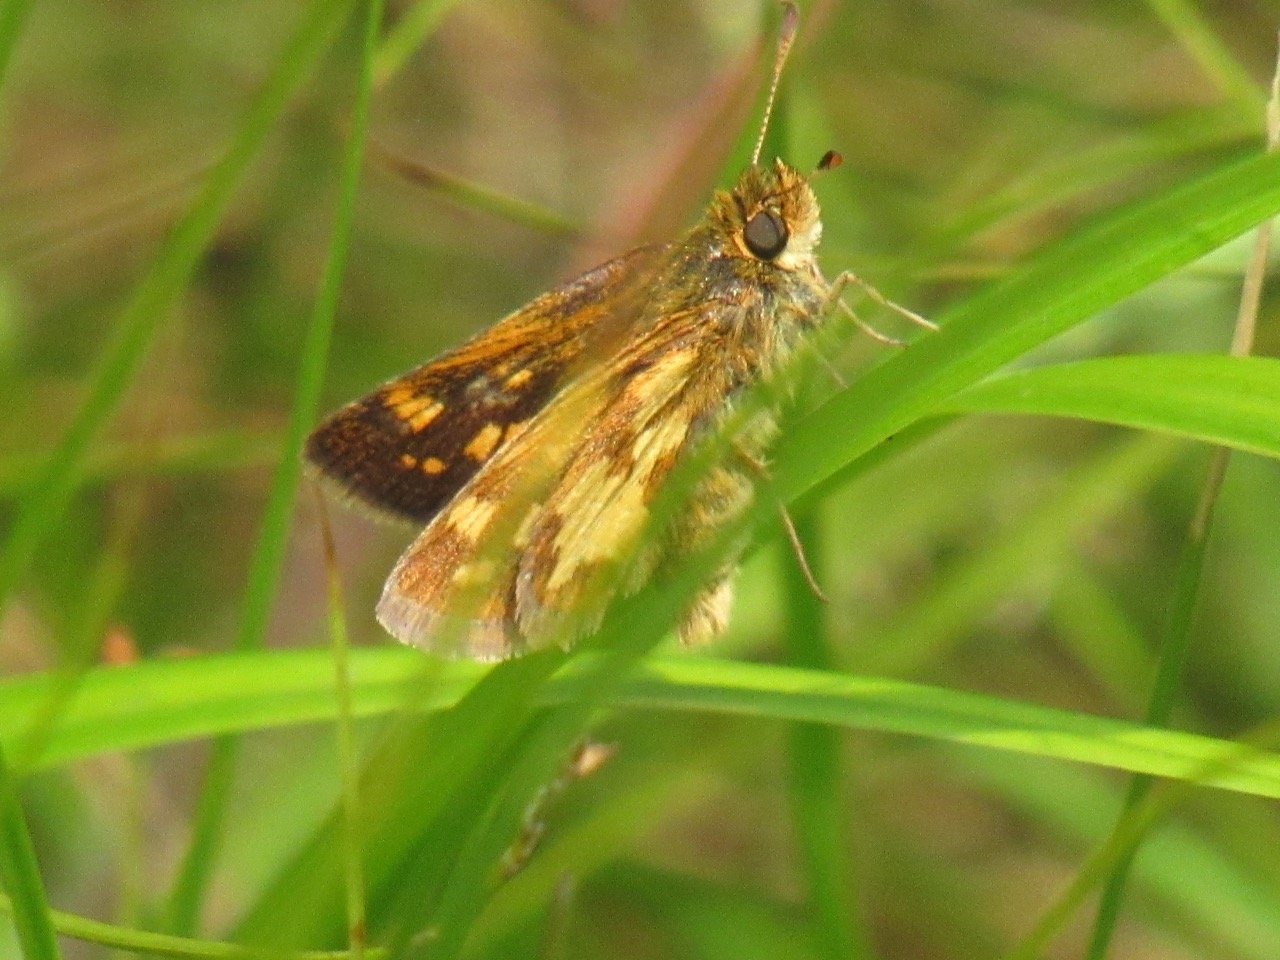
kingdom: Animalia
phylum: Arthropoda
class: Insecta
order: Lepidoptera
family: Hesperiidae
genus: Polites
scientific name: Polites coras
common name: Peck's Skipper
